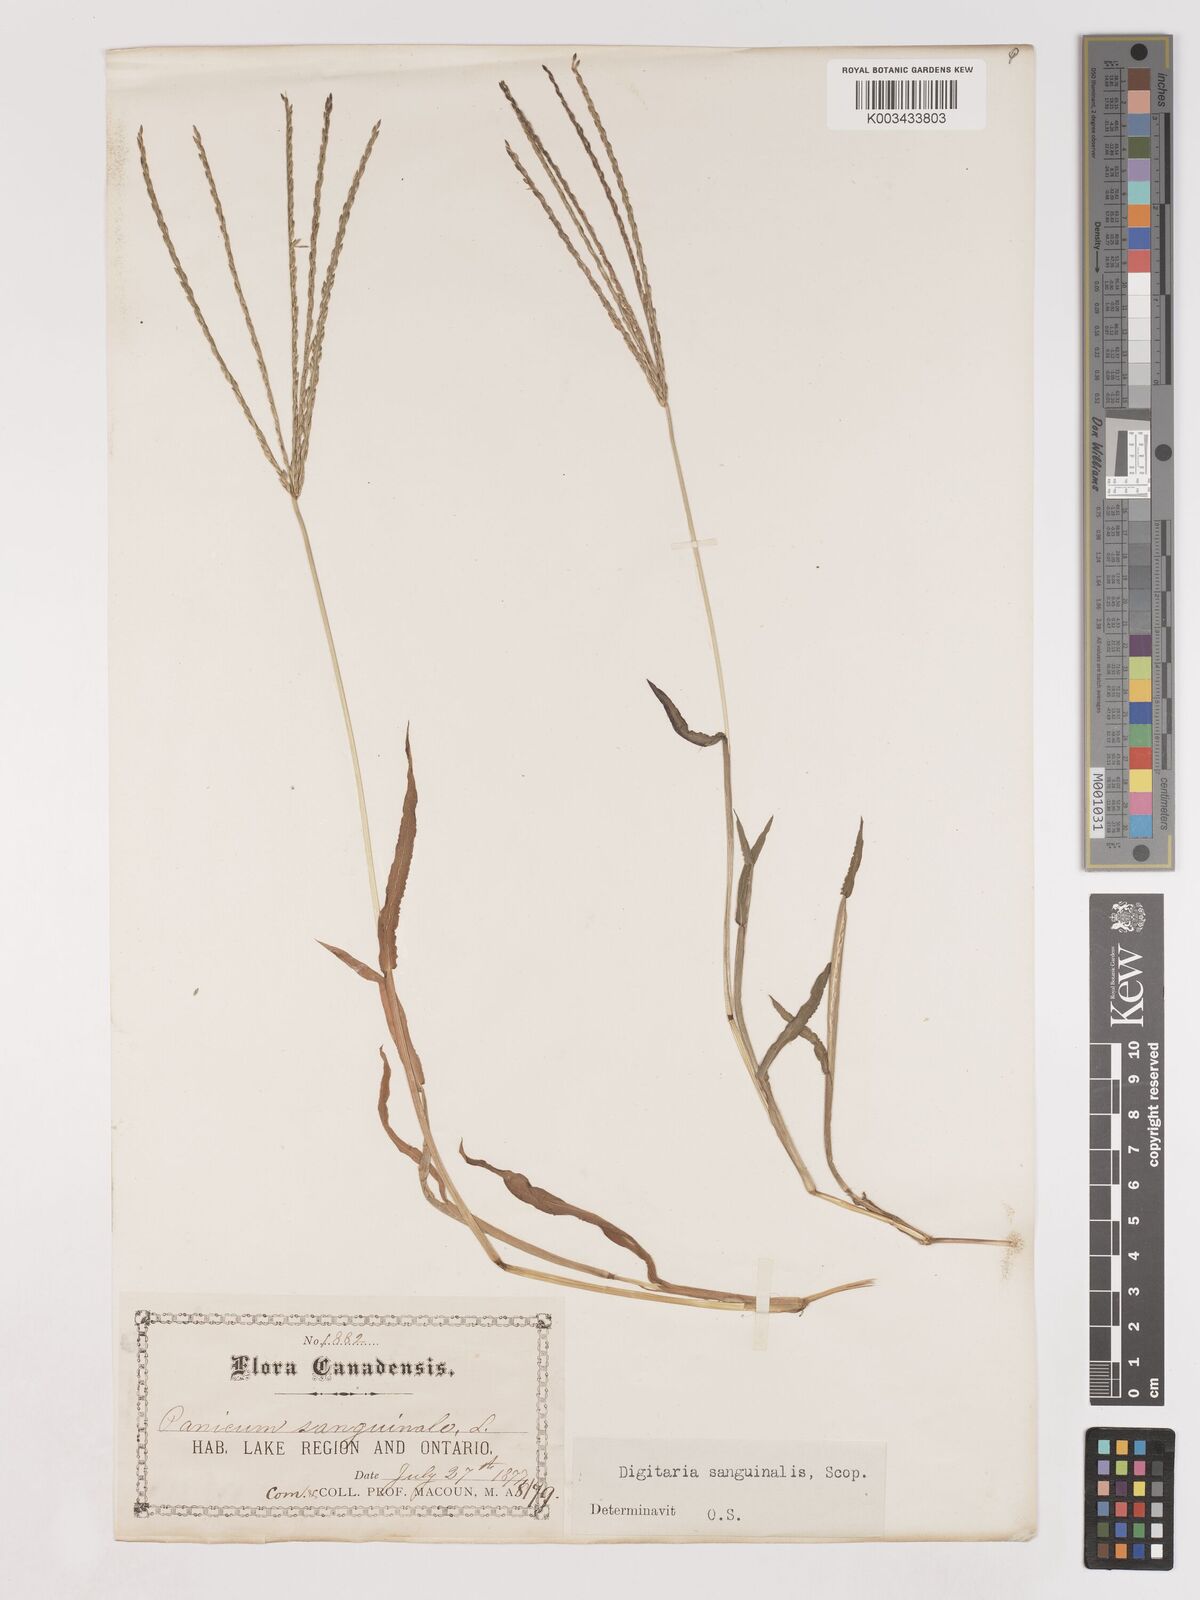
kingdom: Plantae
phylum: Tracheophyta
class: Liliopsida
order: Poales
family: Poaceae
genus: Digitaria
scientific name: Digitaria sanguinalis
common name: Hairy crabgrass
